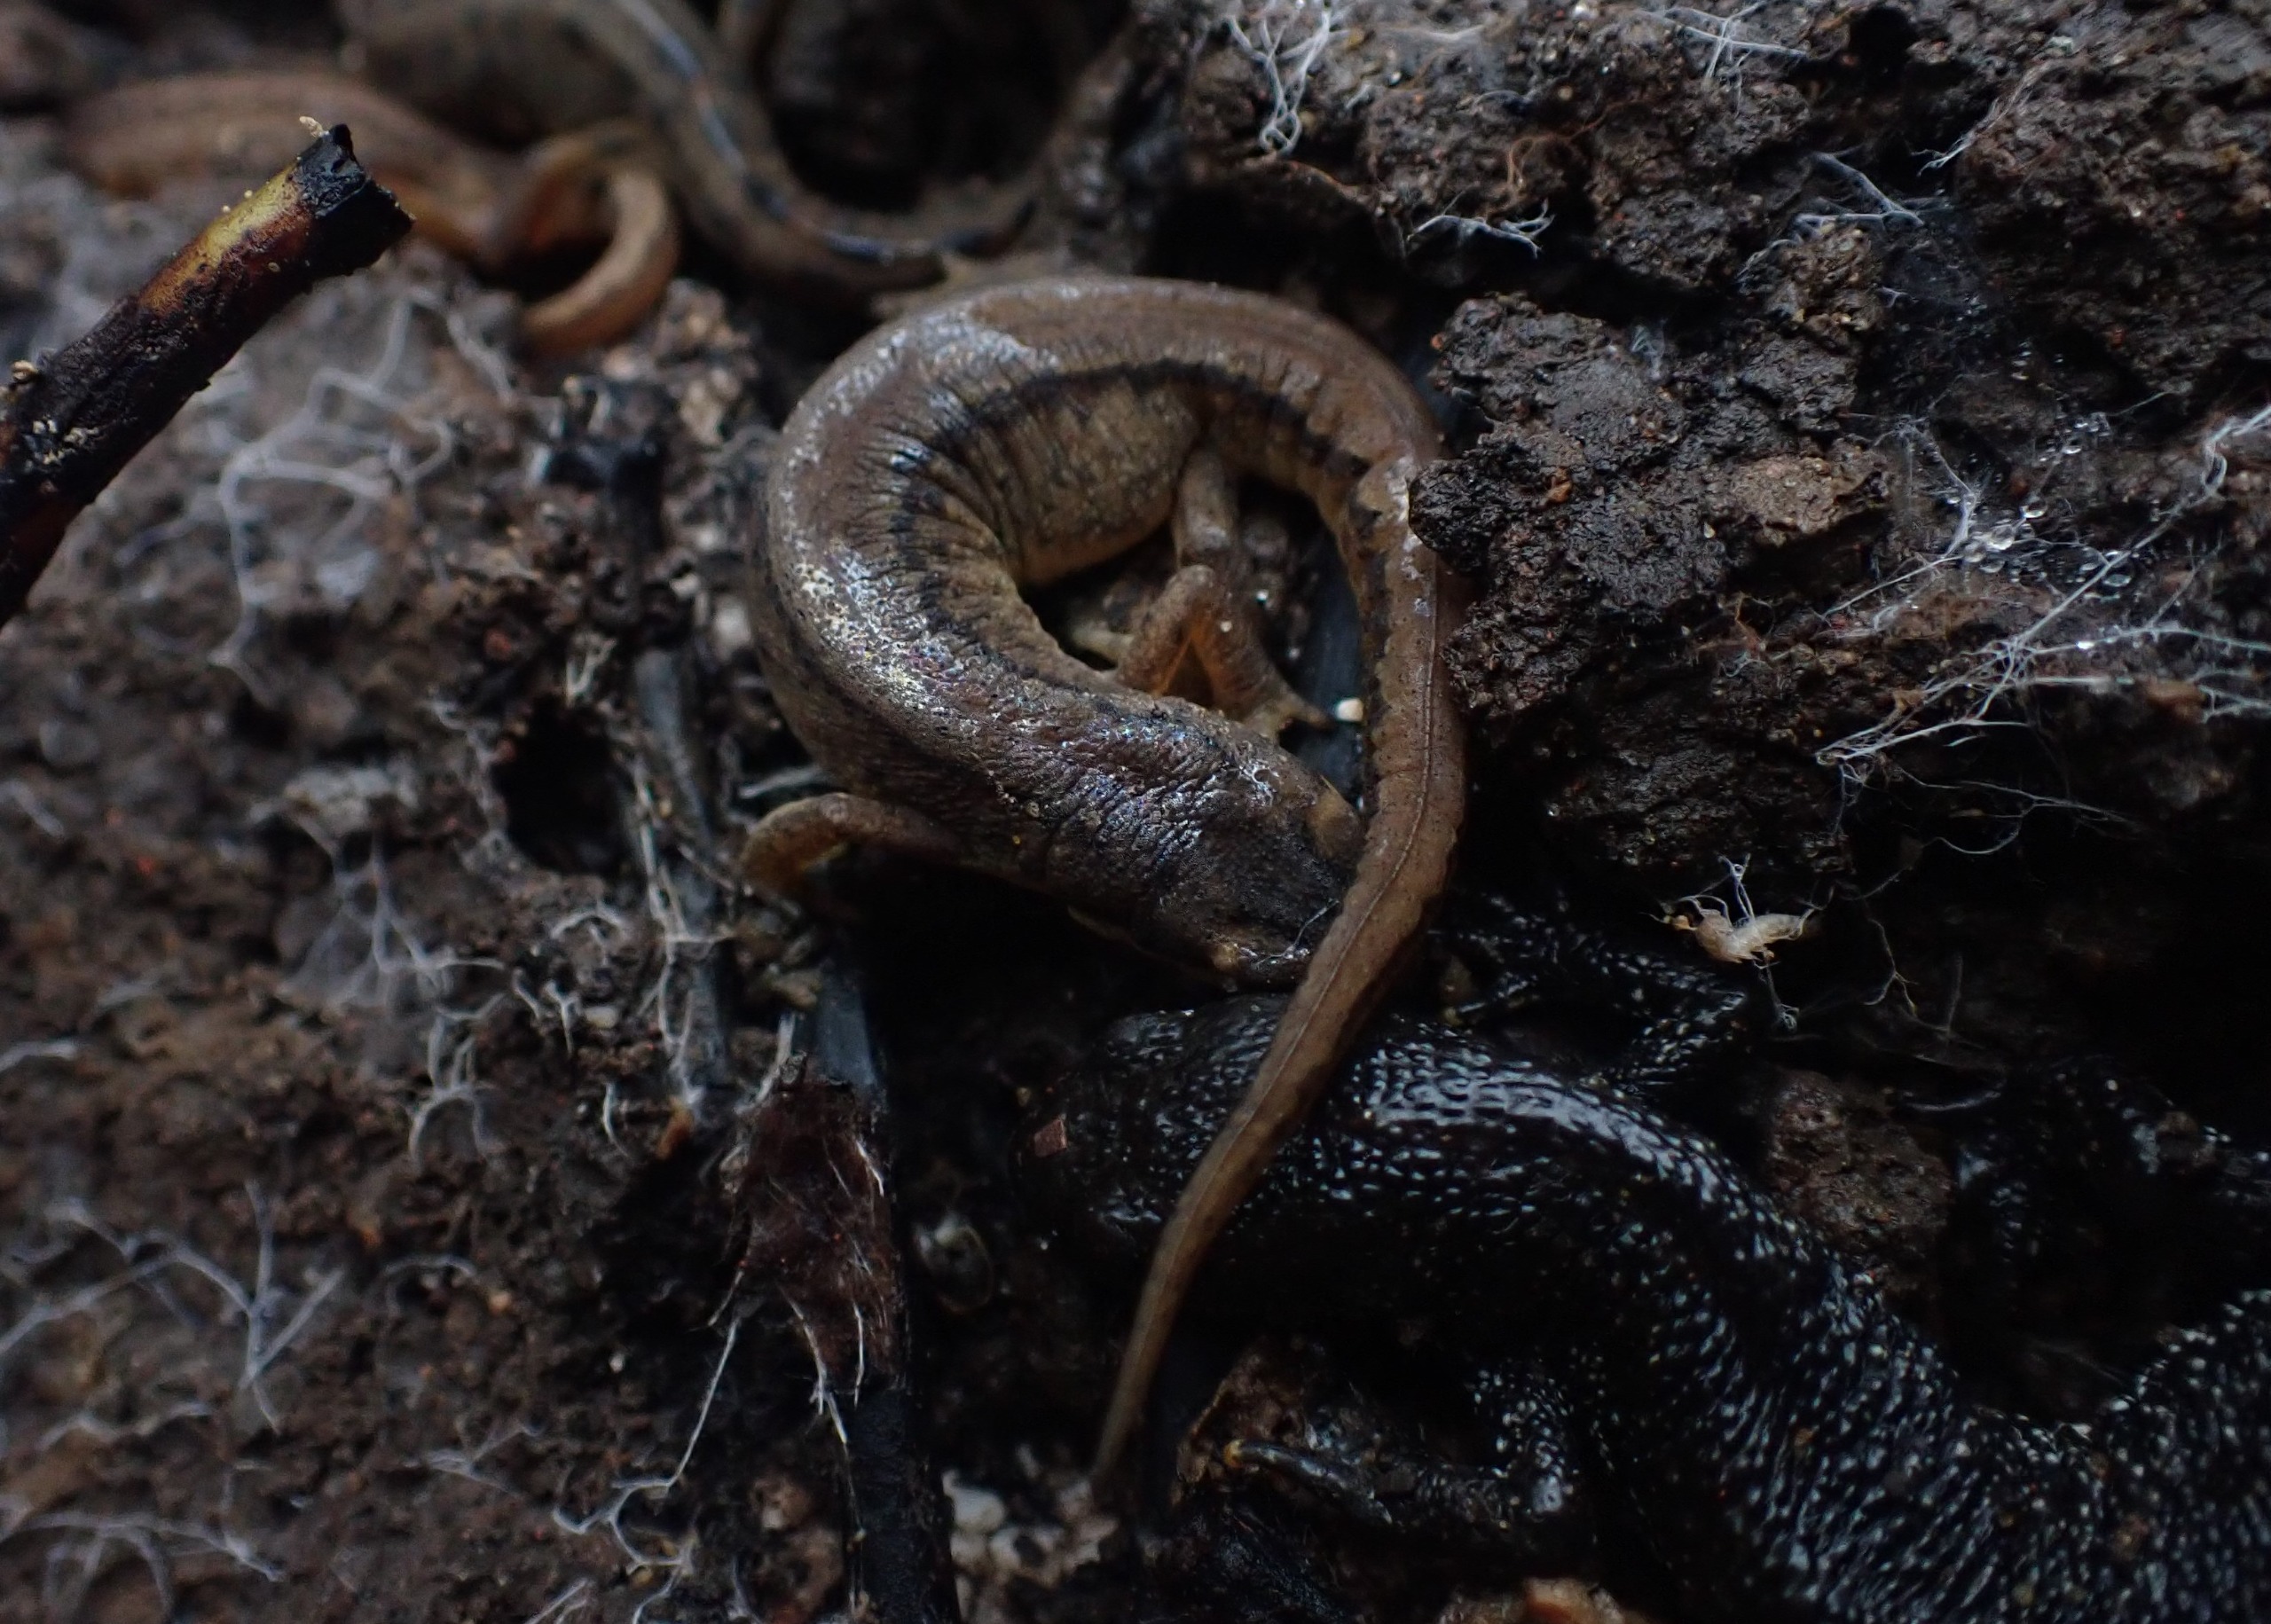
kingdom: Animalia
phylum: Chordata
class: Amphibia
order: Caudata
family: Salamandridae
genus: Lissotriton
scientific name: Lissotriton vulgaris
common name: Lille vandsalamander
